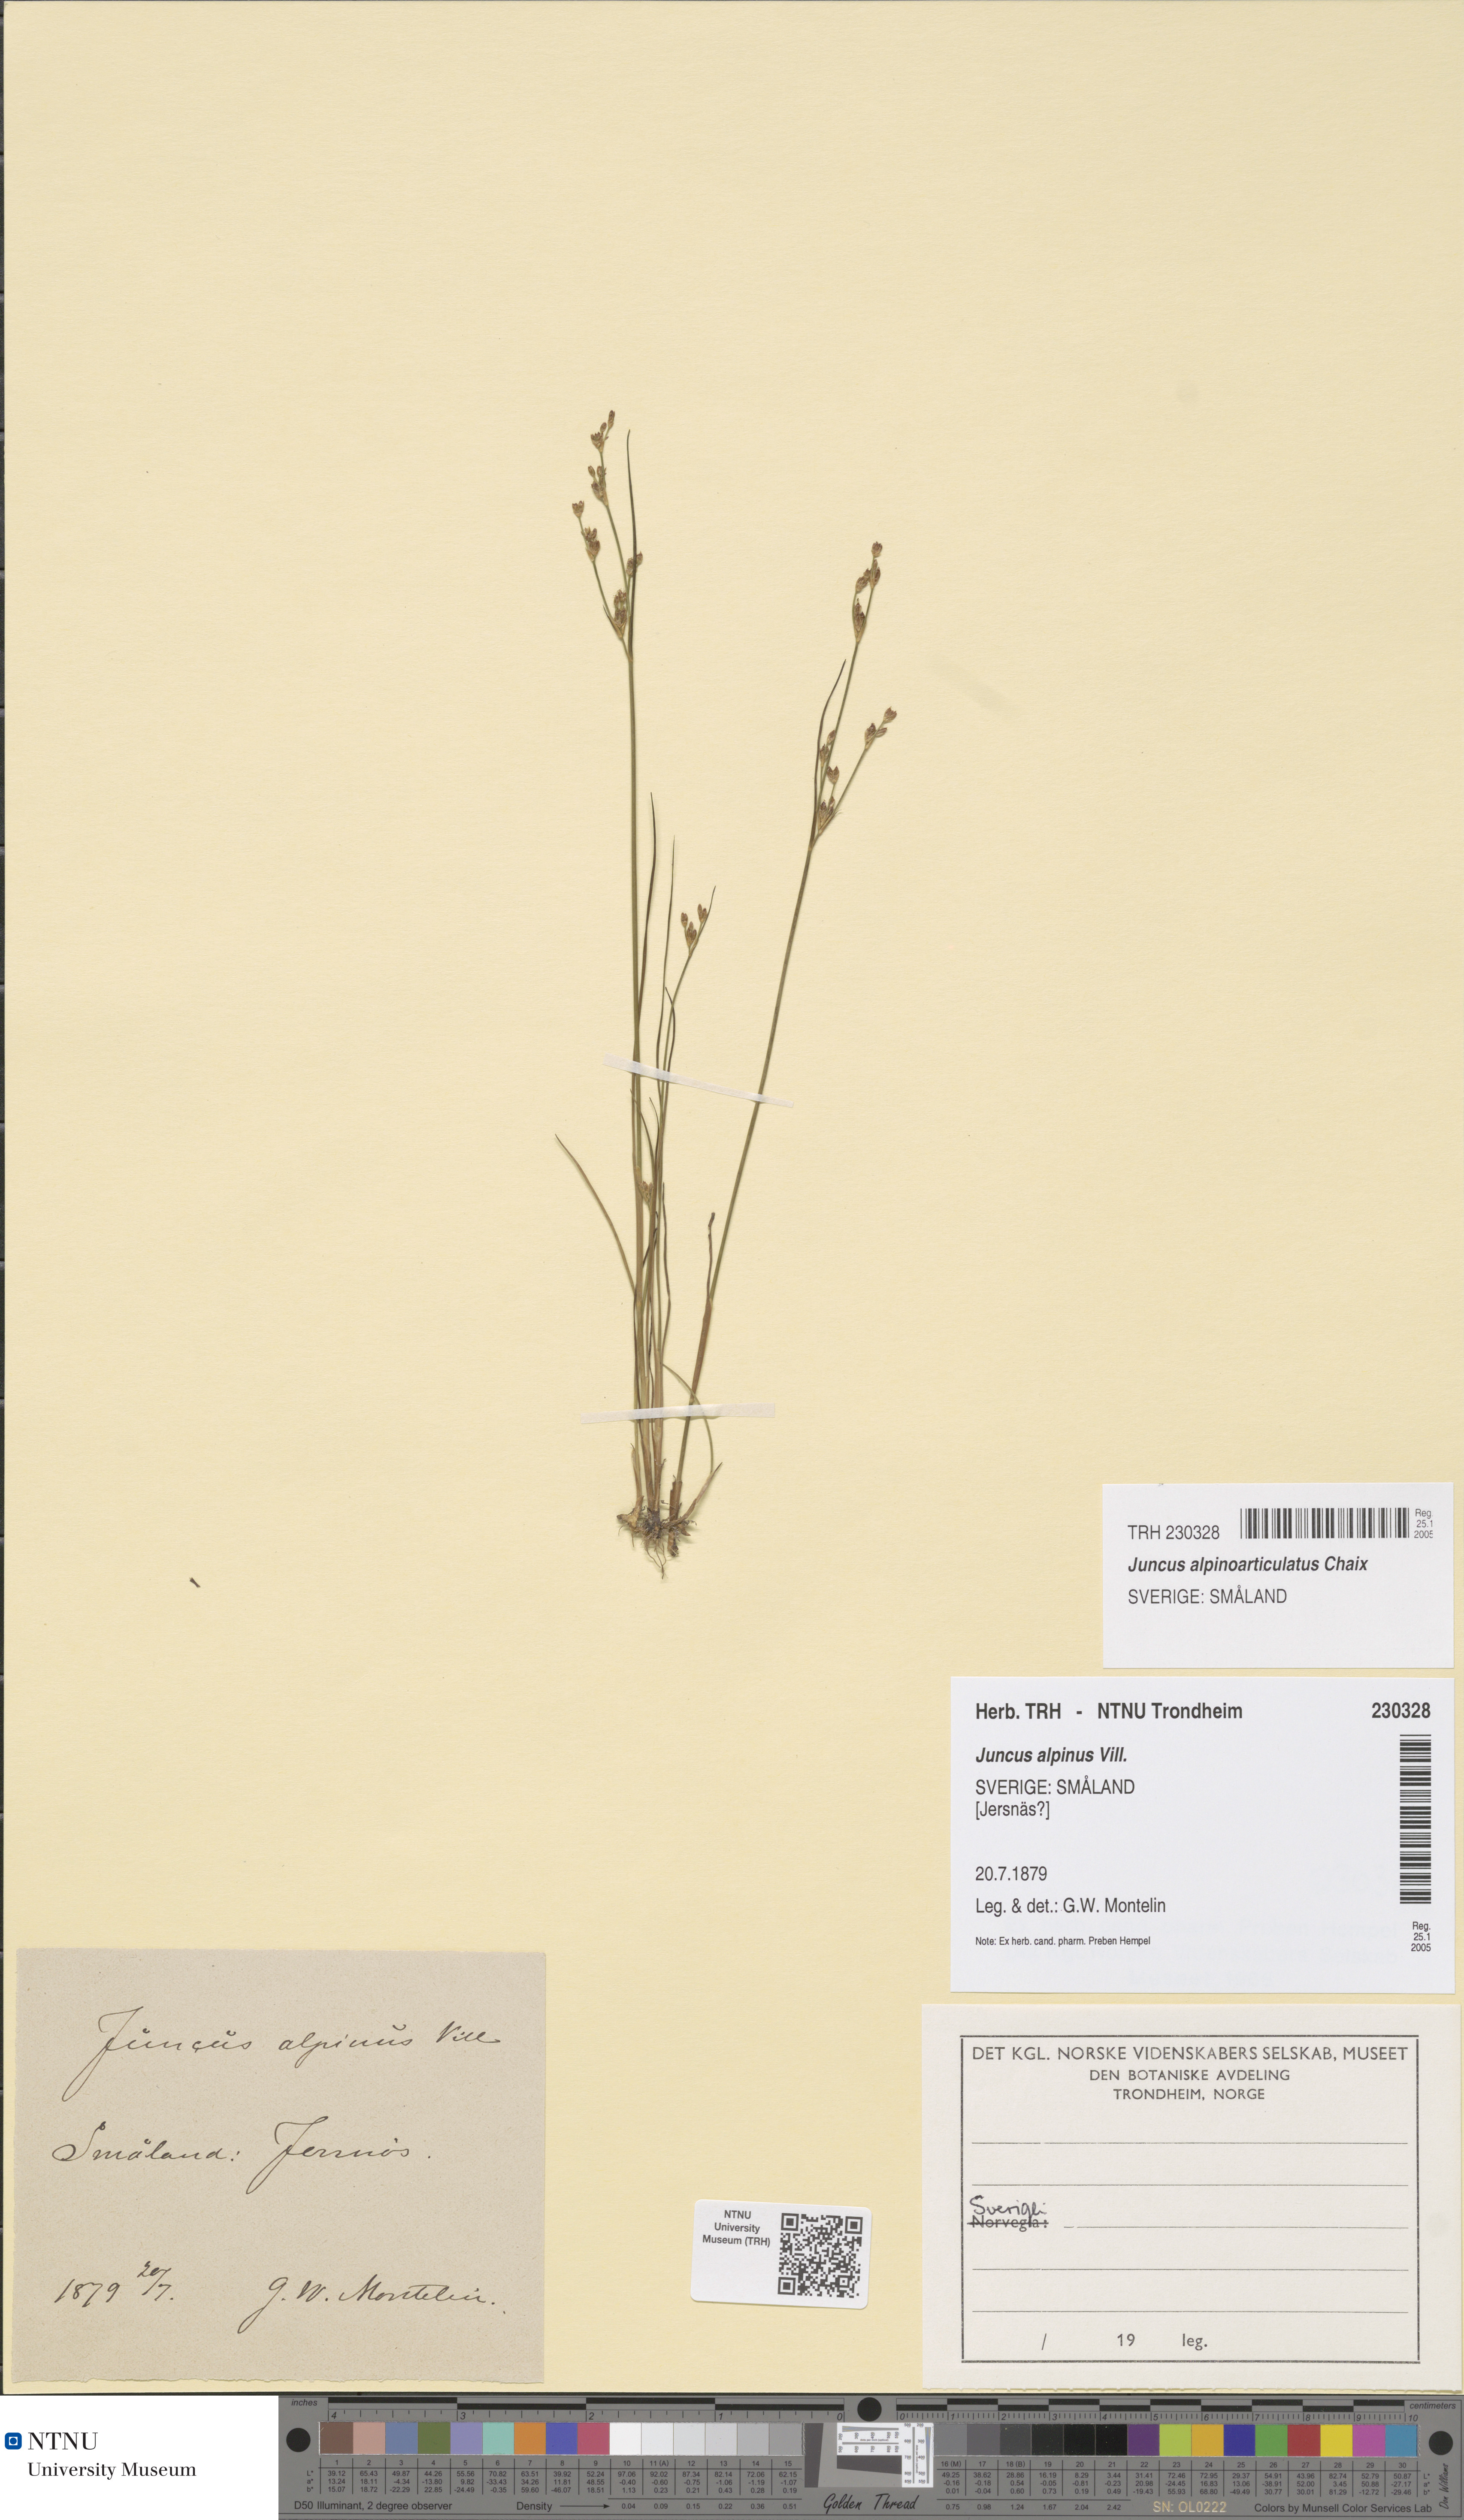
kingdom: Plantae
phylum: Tracheophyta
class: Liliopsida
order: Poales
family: Juncaceae
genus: Juncus
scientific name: Juncus alpinoarticulatus
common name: Alpine rush
